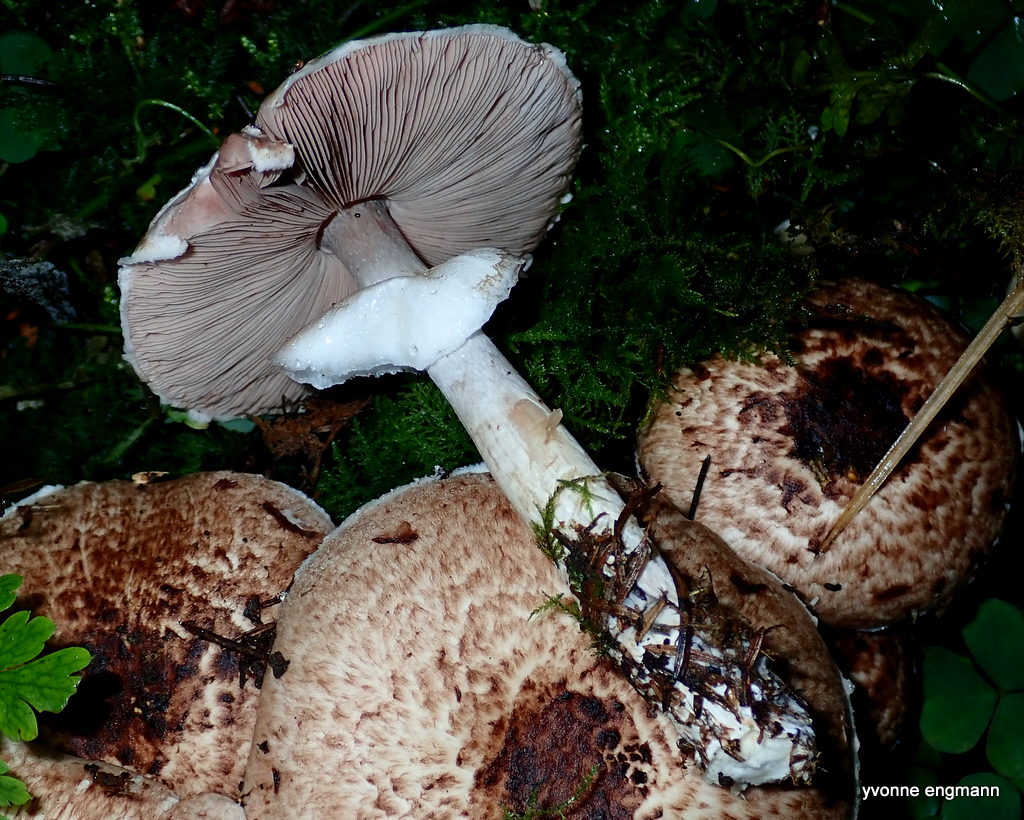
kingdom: Fungi
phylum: Basidiomycota
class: Agaricomycetes
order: Agaricales
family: Agaricaceae
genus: Agaricus
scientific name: Agaricus impudicus
